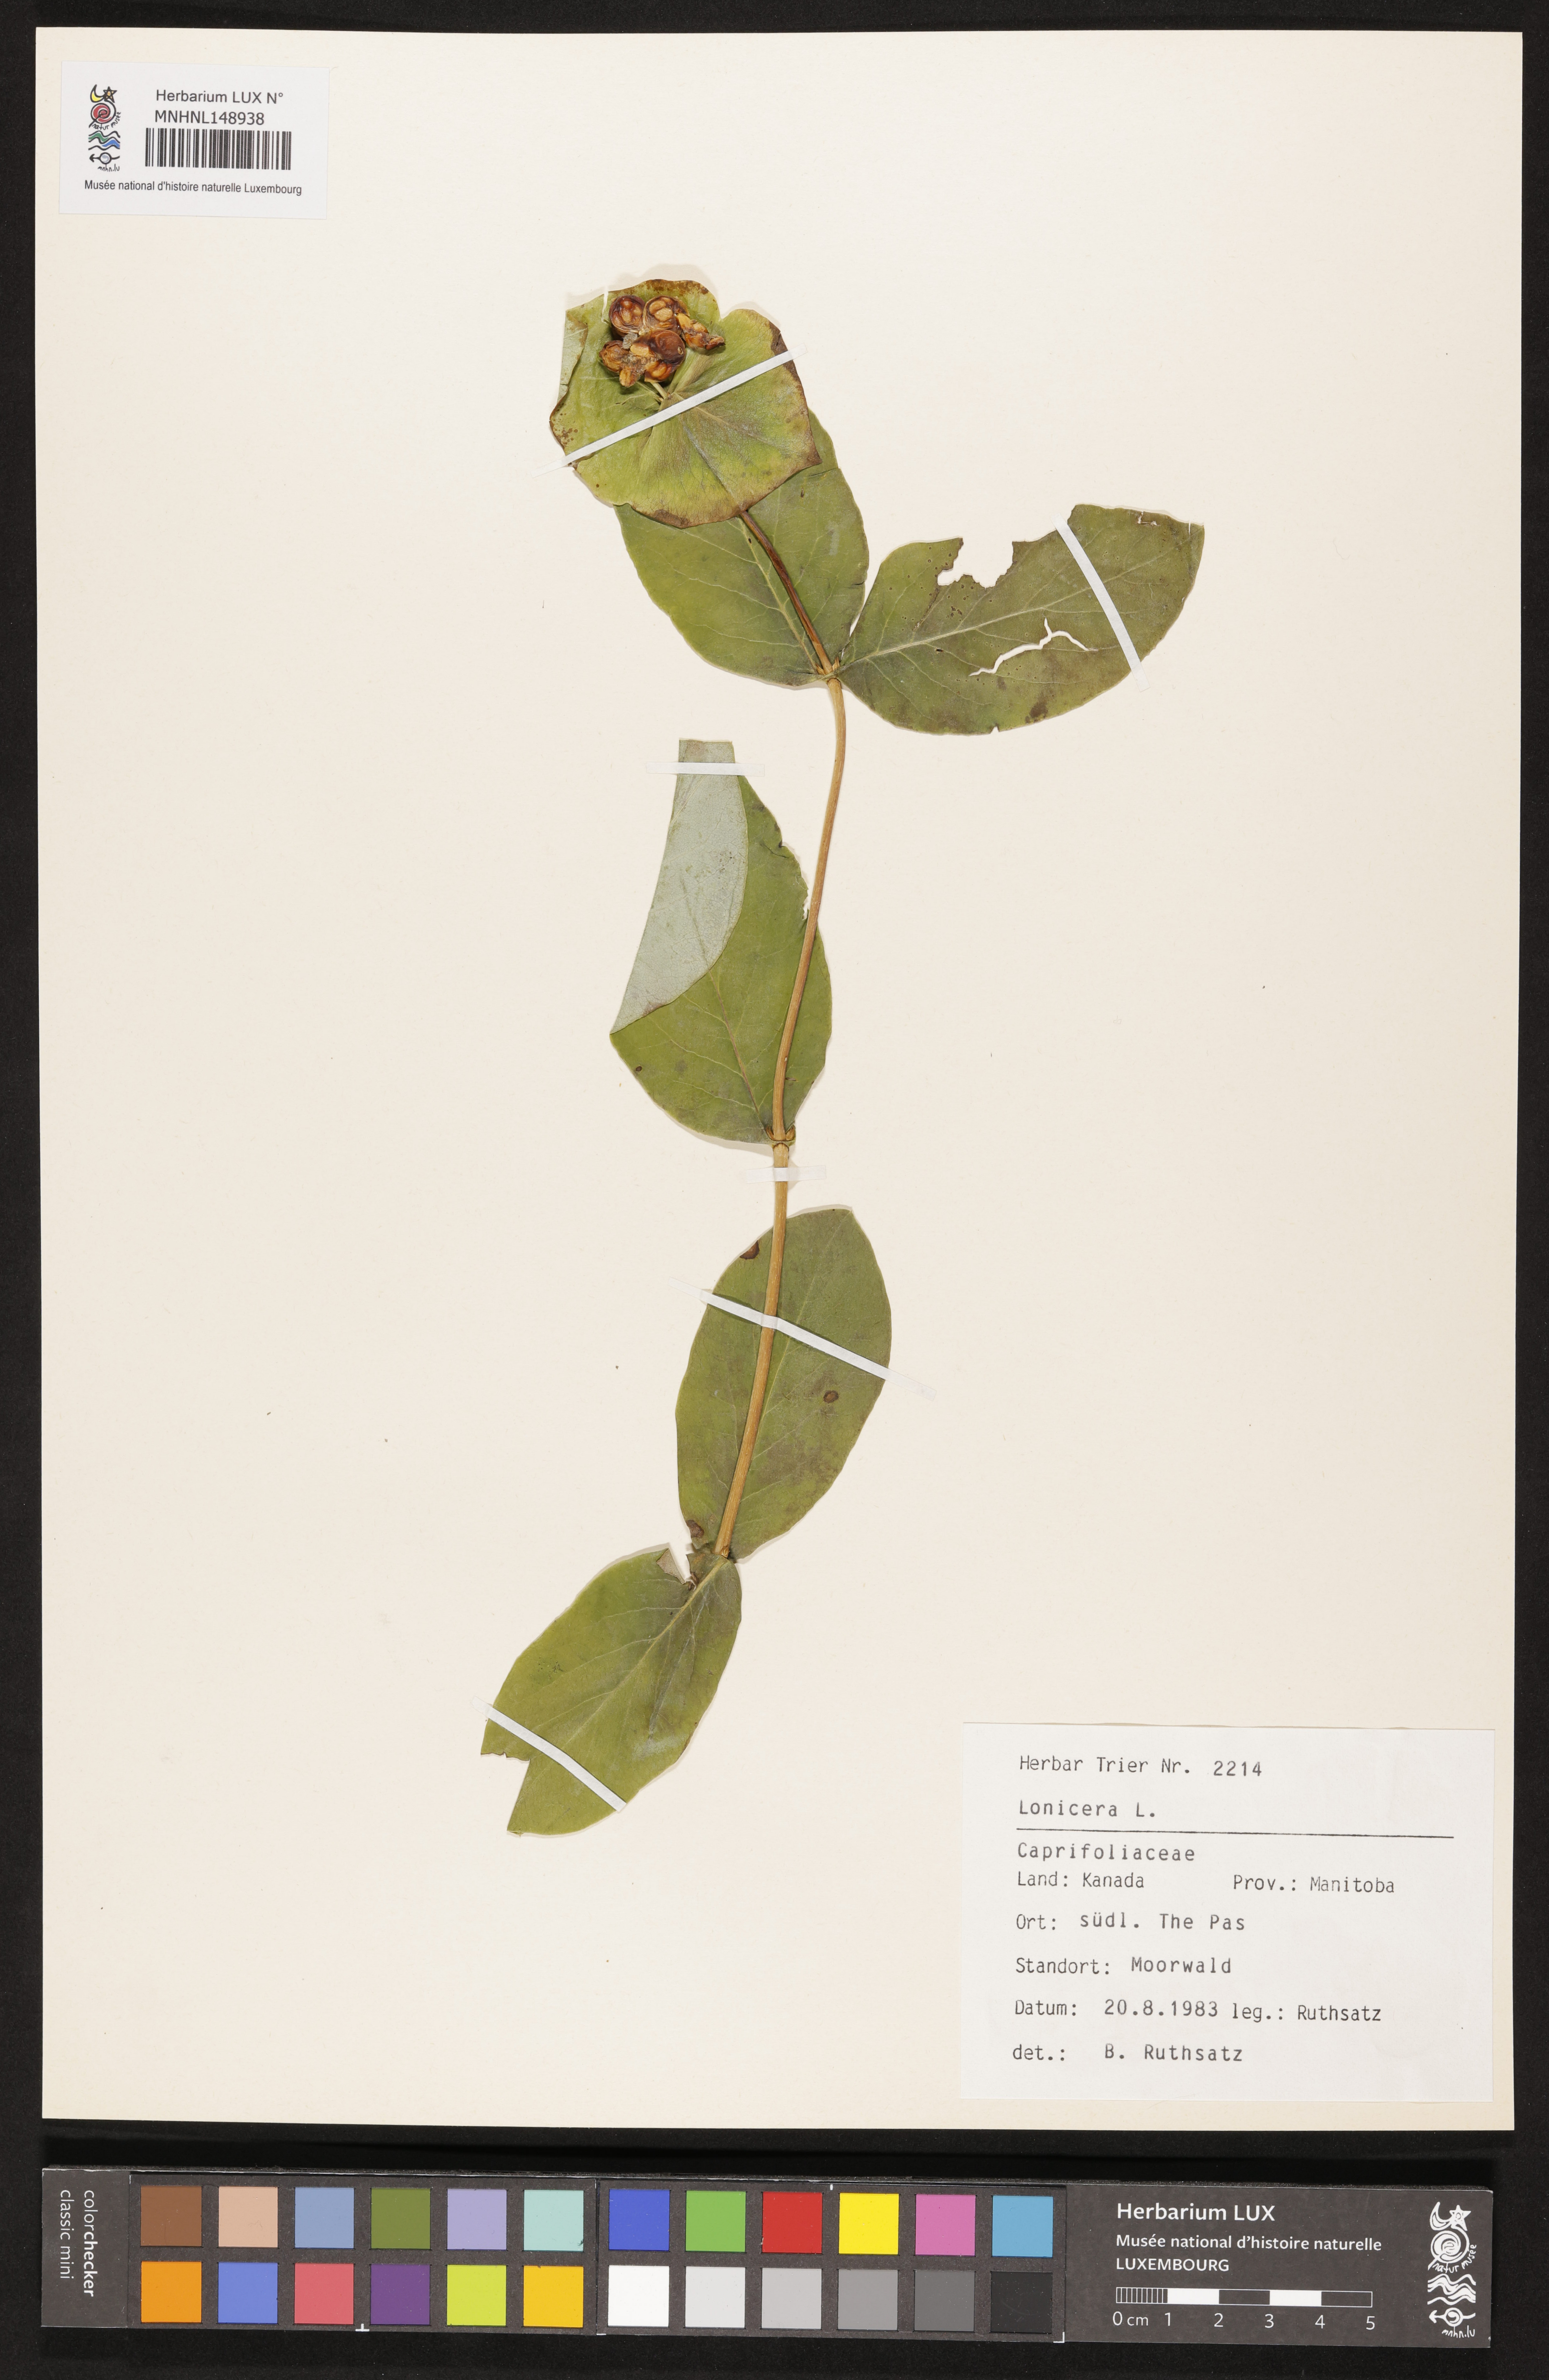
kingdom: Plantae
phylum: Tracheophyta
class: Magnoliopsida
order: Dipsacales
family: Caprifoliaceae
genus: Lonicera
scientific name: Lonicera
